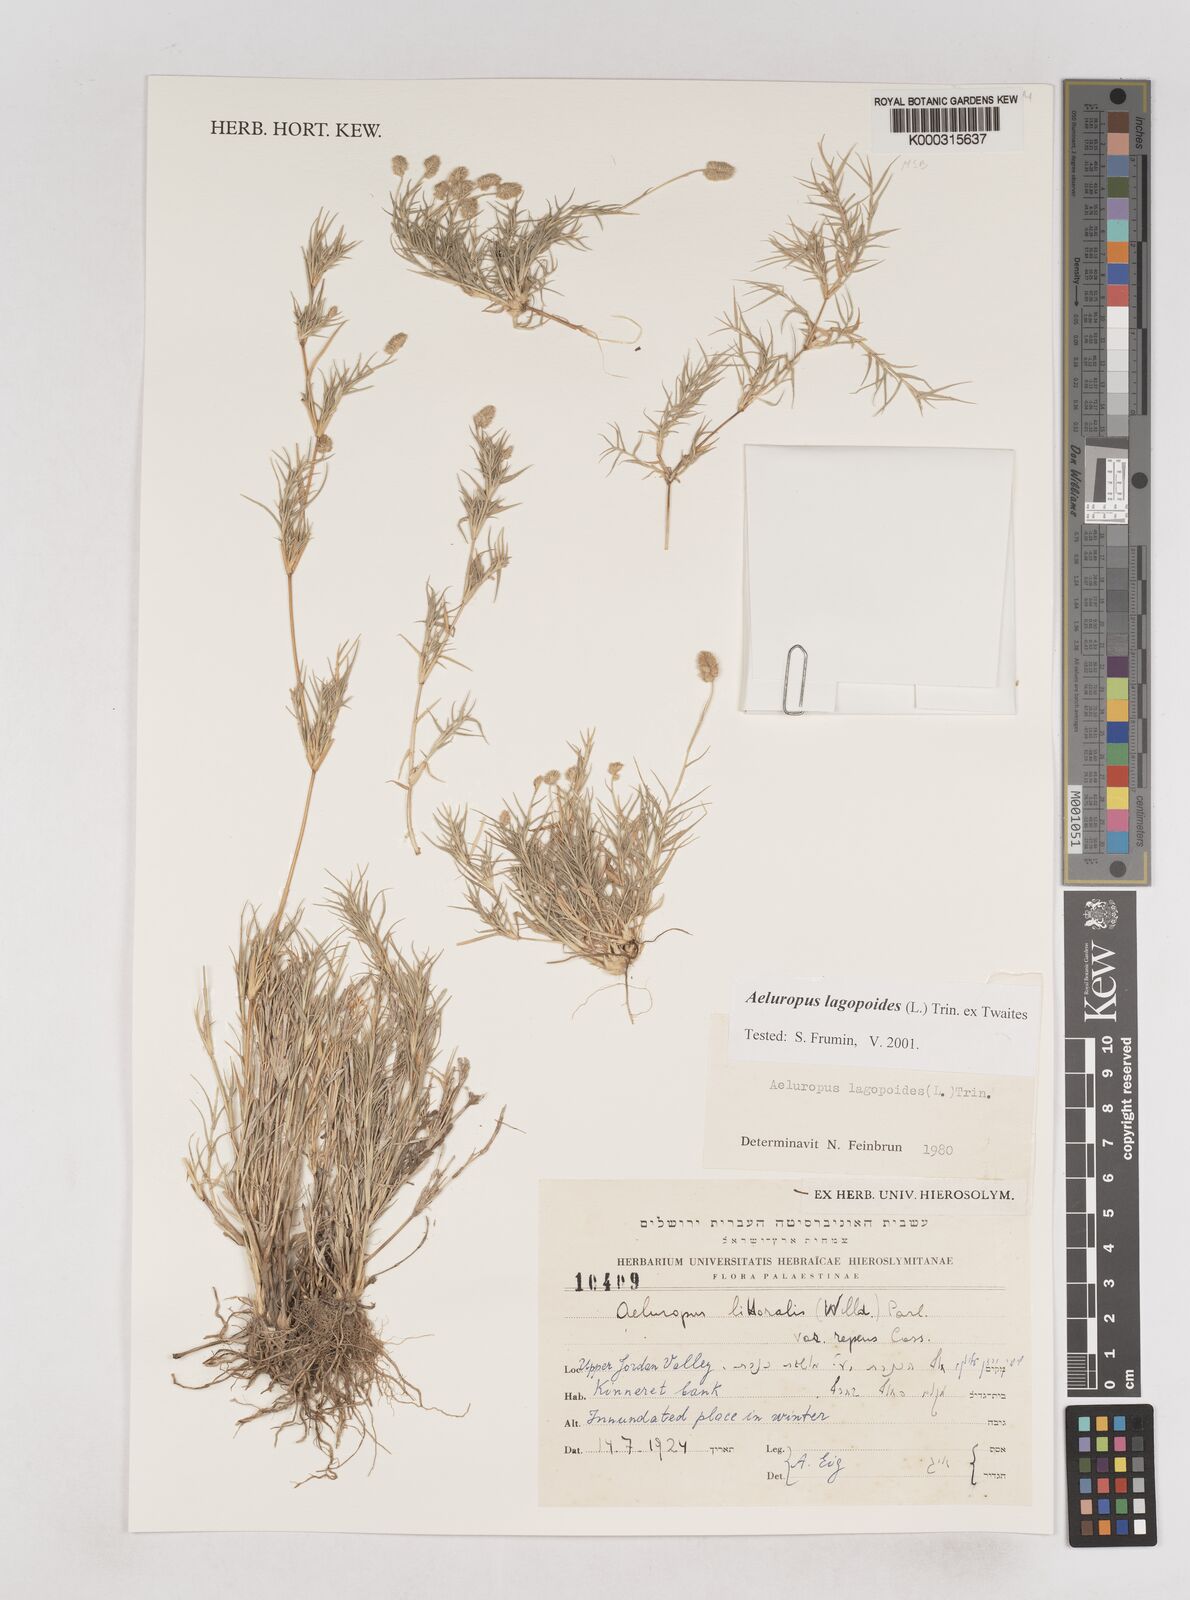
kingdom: Plantae
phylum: Tracheophyta
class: Liliopsida
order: Poales
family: Poaceae
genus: Aeluropus
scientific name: Aeluropus lagopoides
